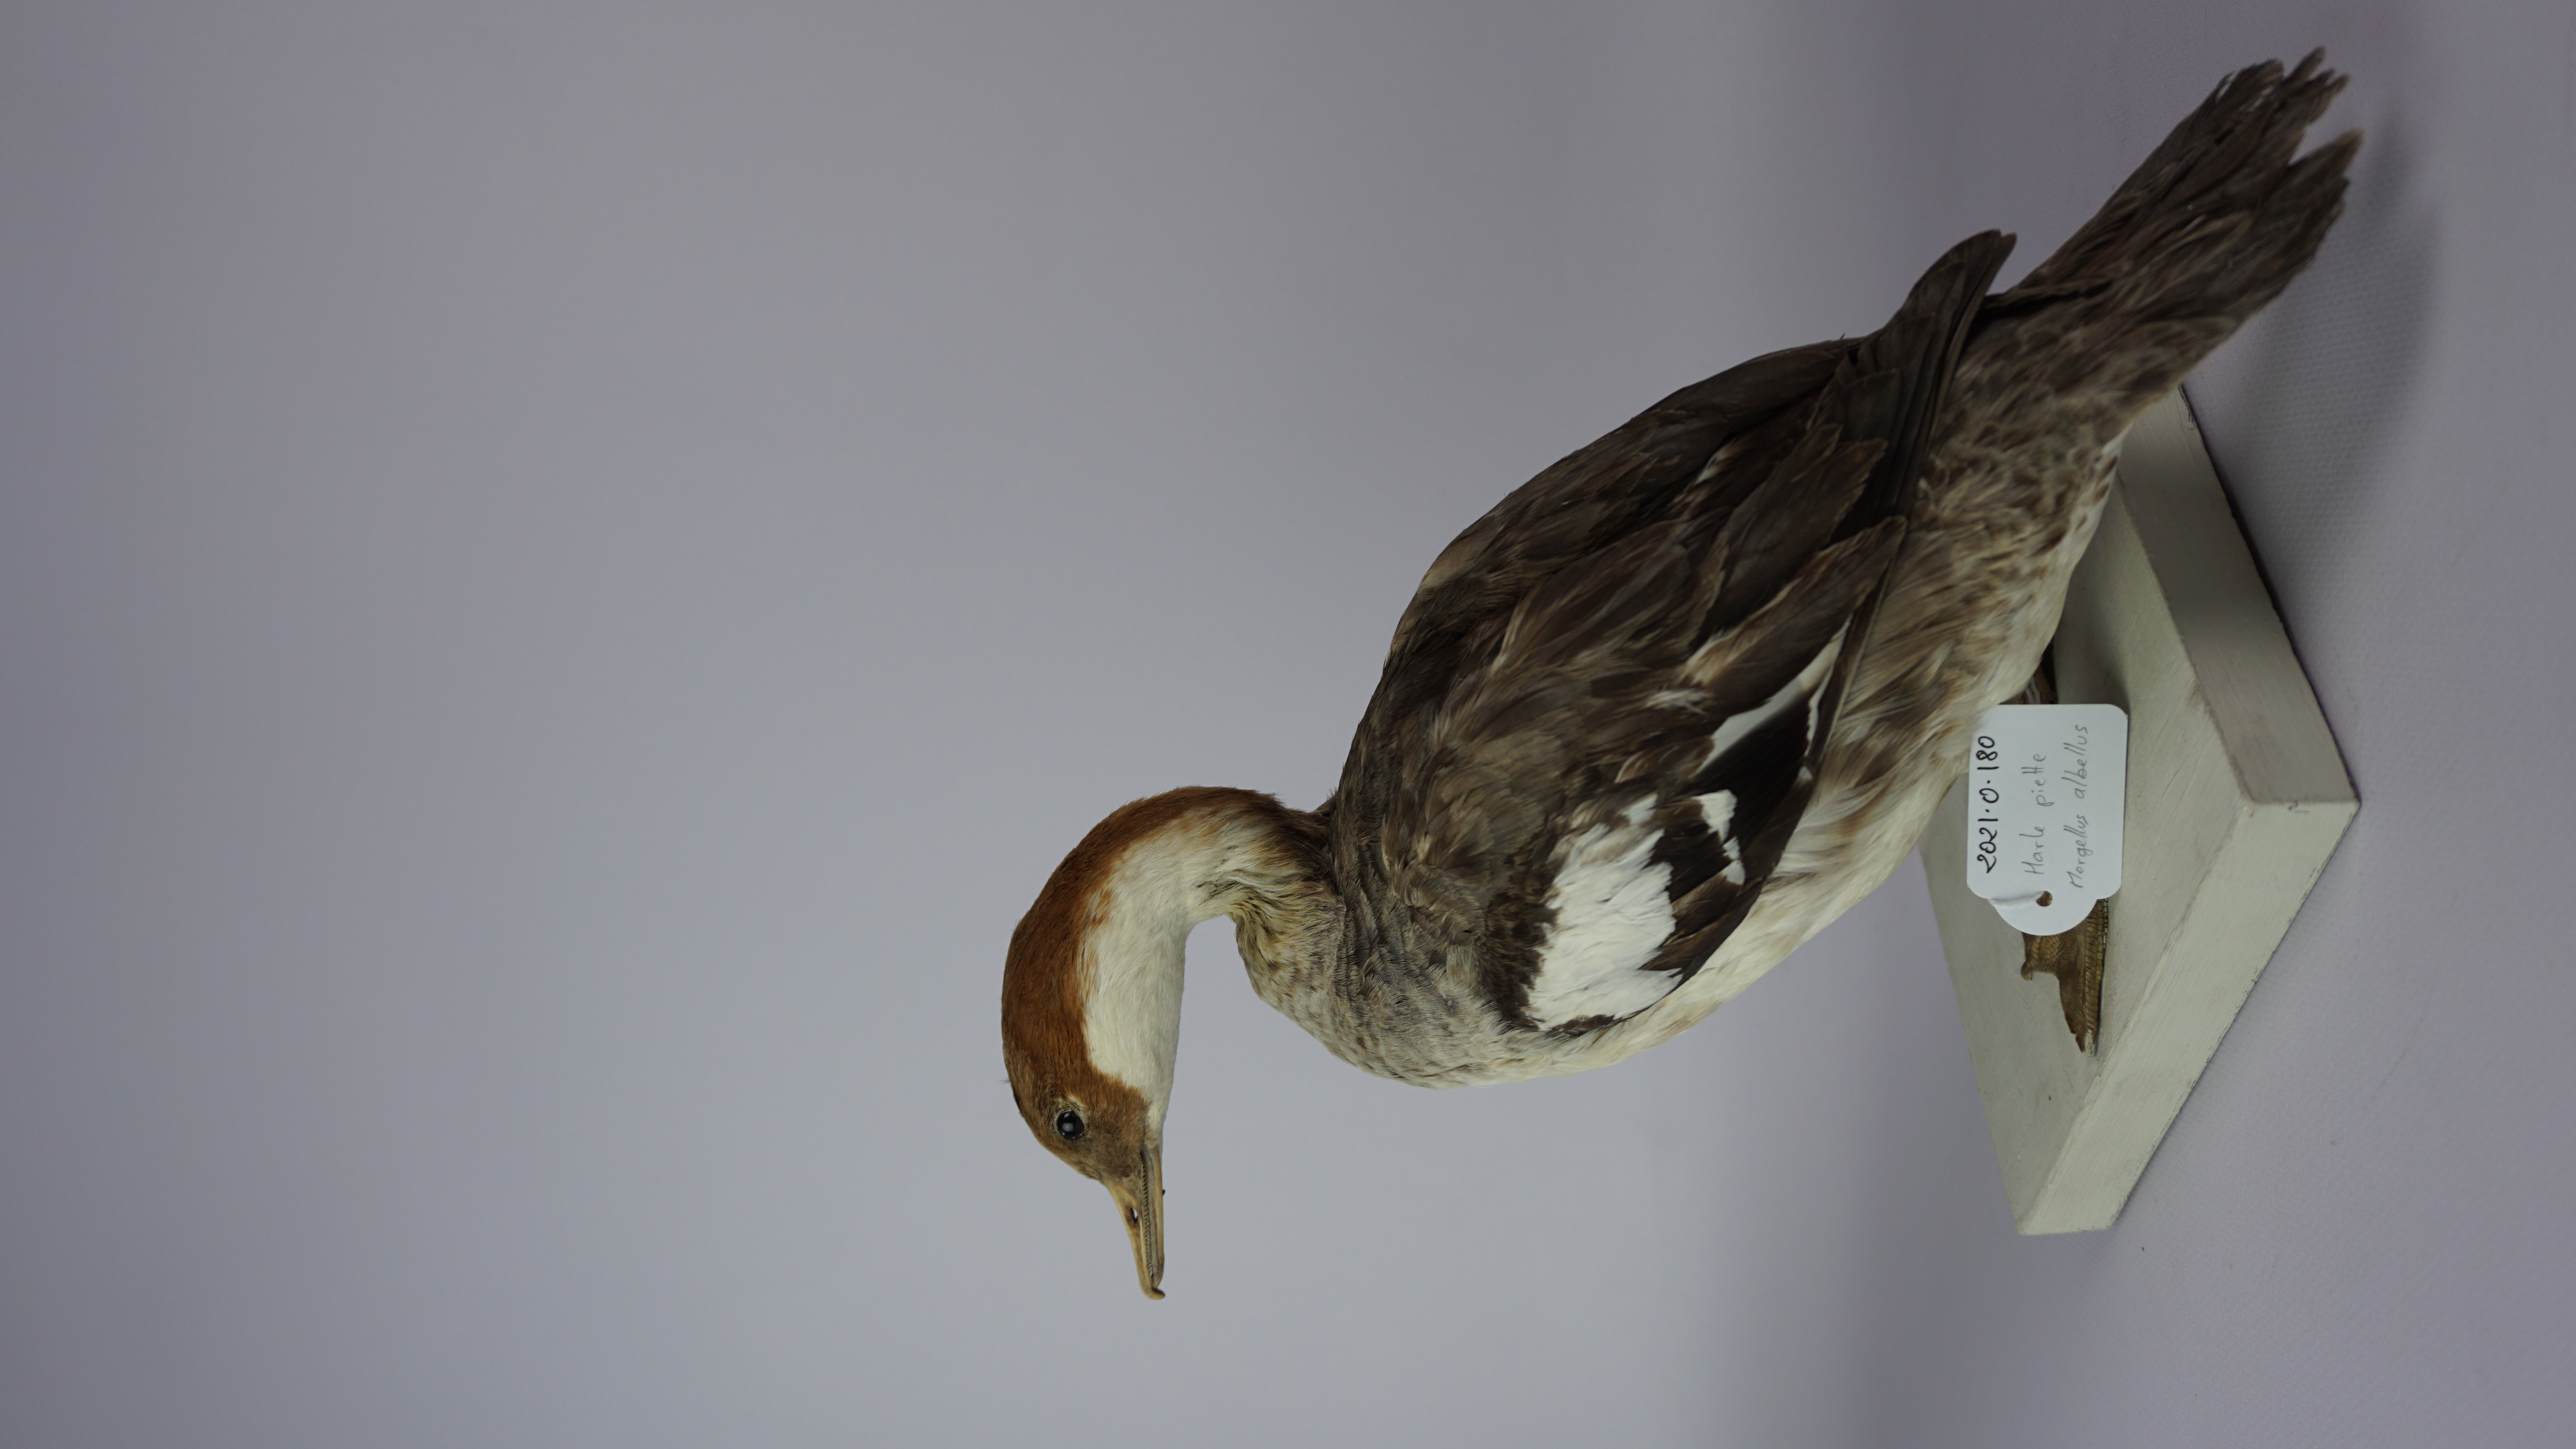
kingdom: Animalia
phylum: Chordata
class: Aves
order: Anseriformes
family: Anatidae
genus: Mergellus
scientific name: Mergellus albellus
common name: Smew
